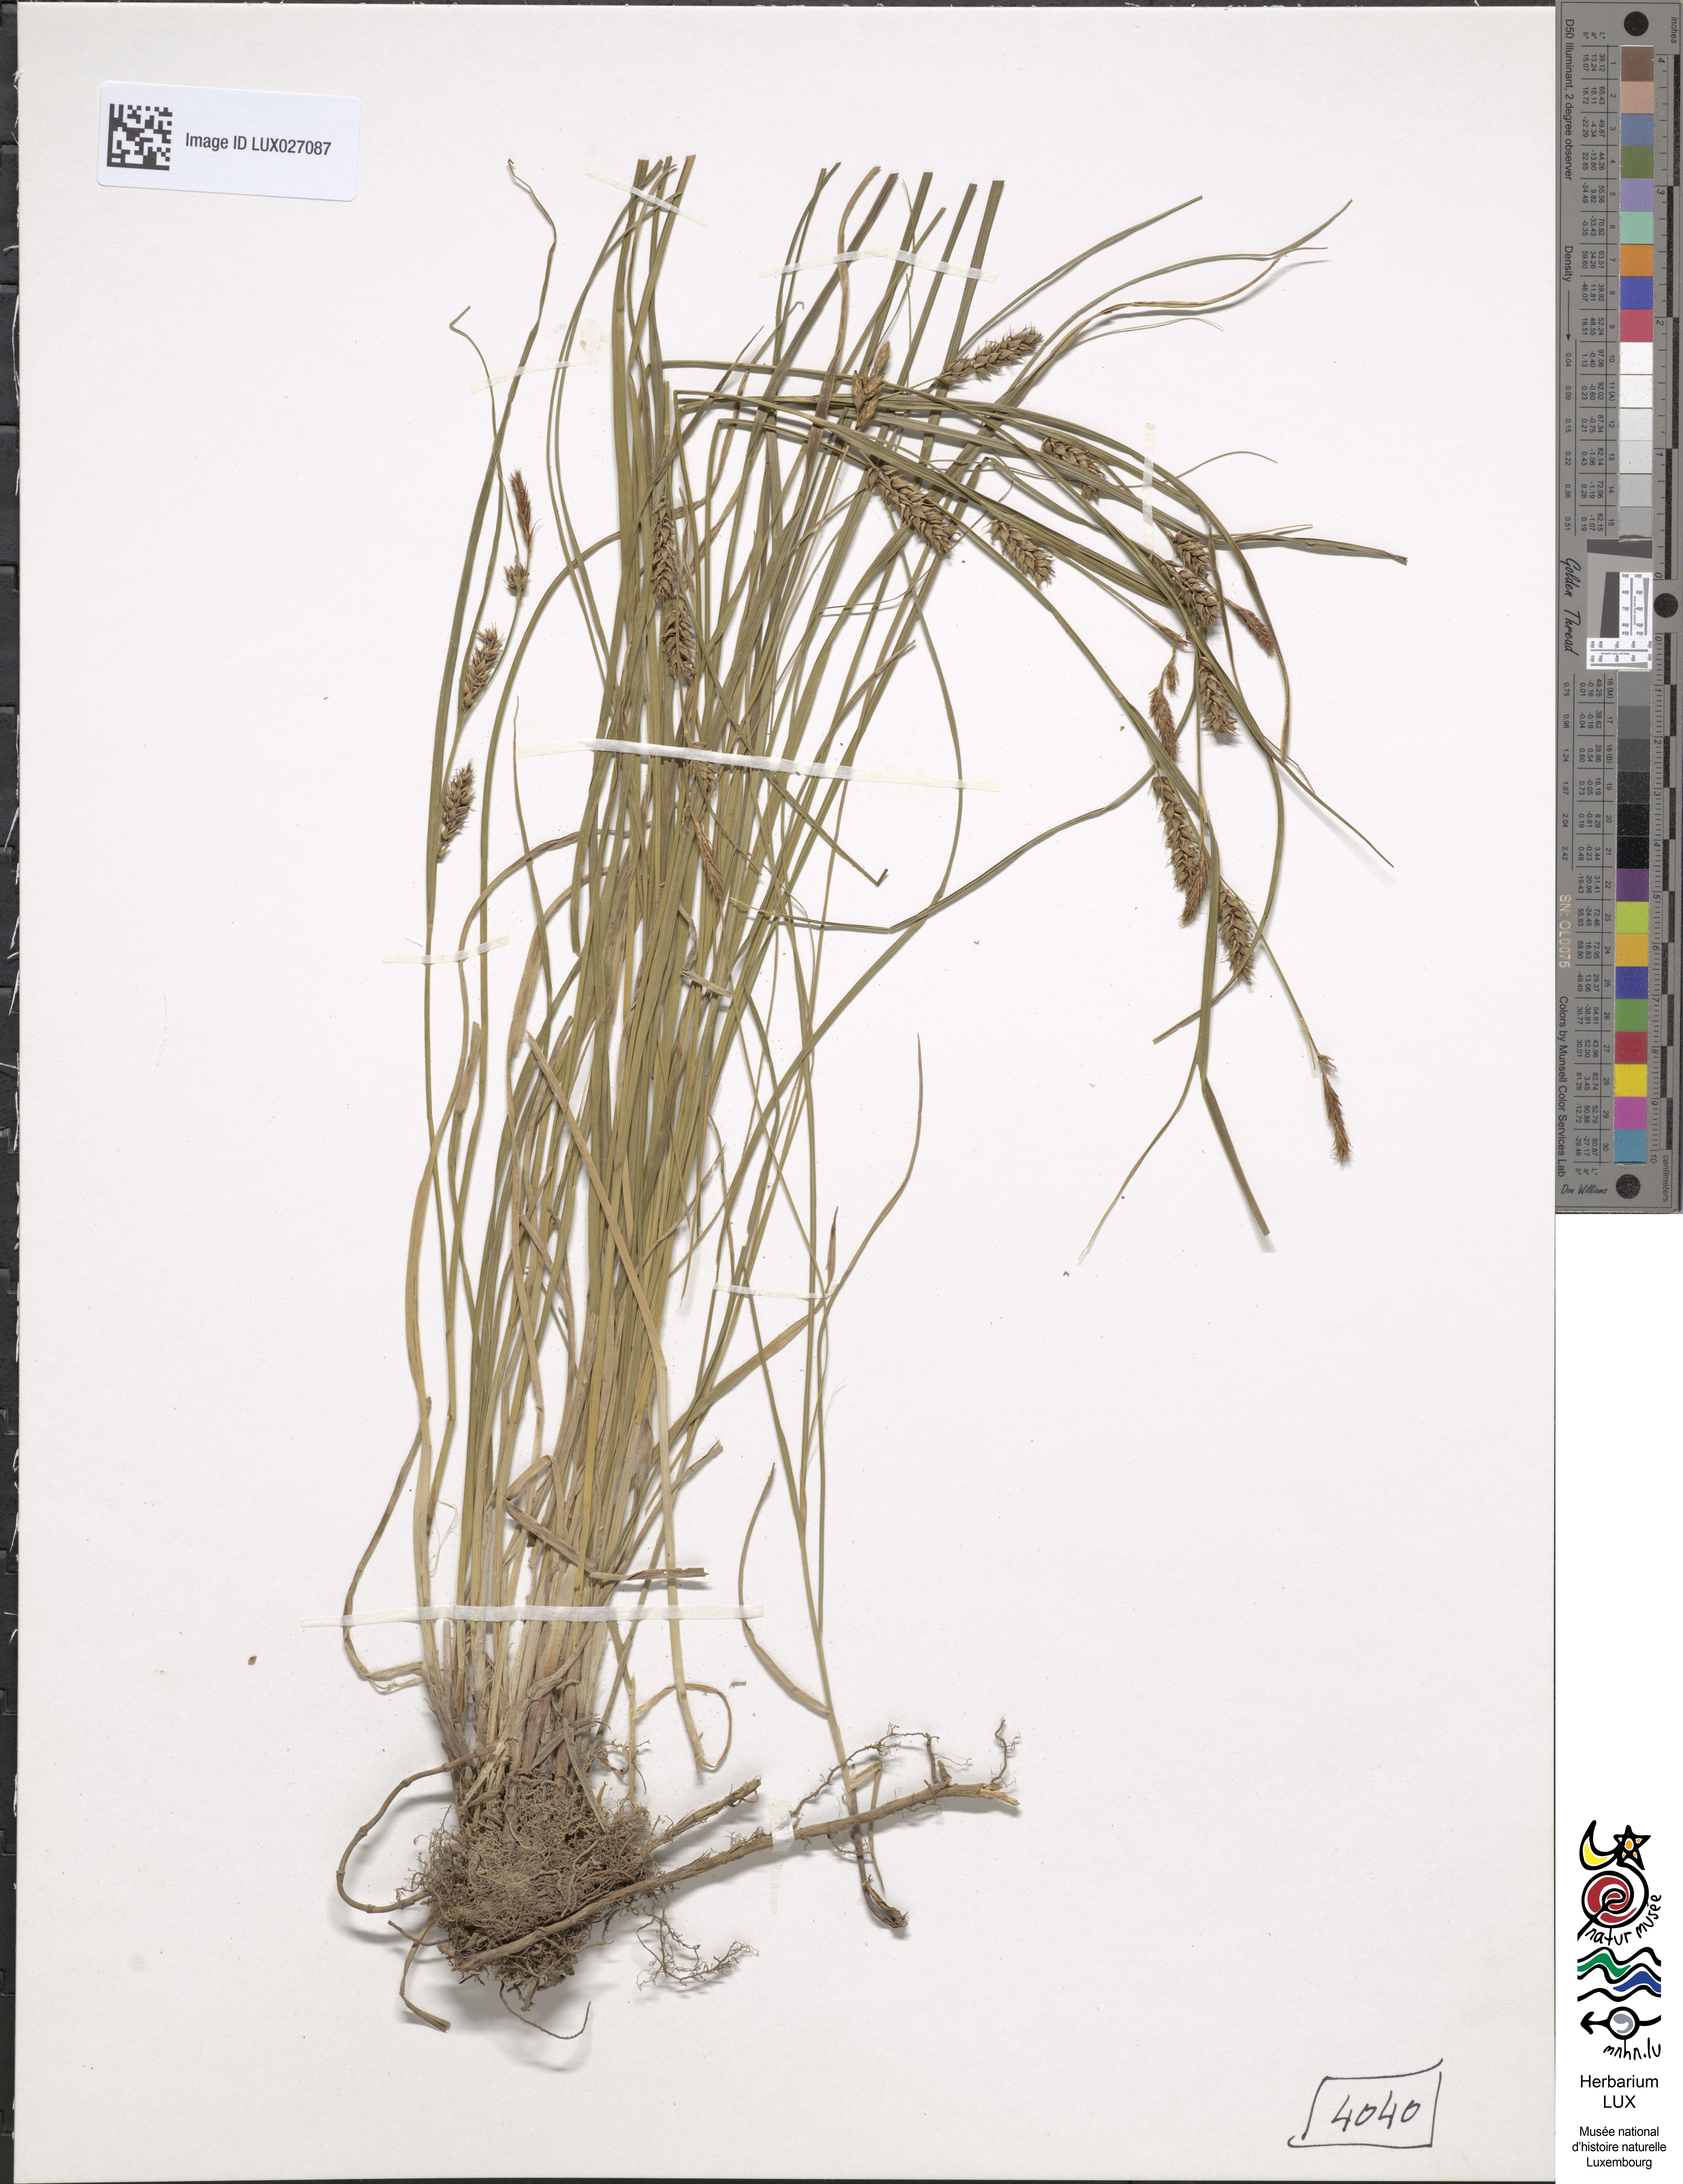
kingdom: Plantae
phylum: Tracheophyta
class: Liliopsida
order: Poales
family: Cyperaceae
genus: Carex
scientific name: Carex melanostachya
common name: Black-spiked sedge
